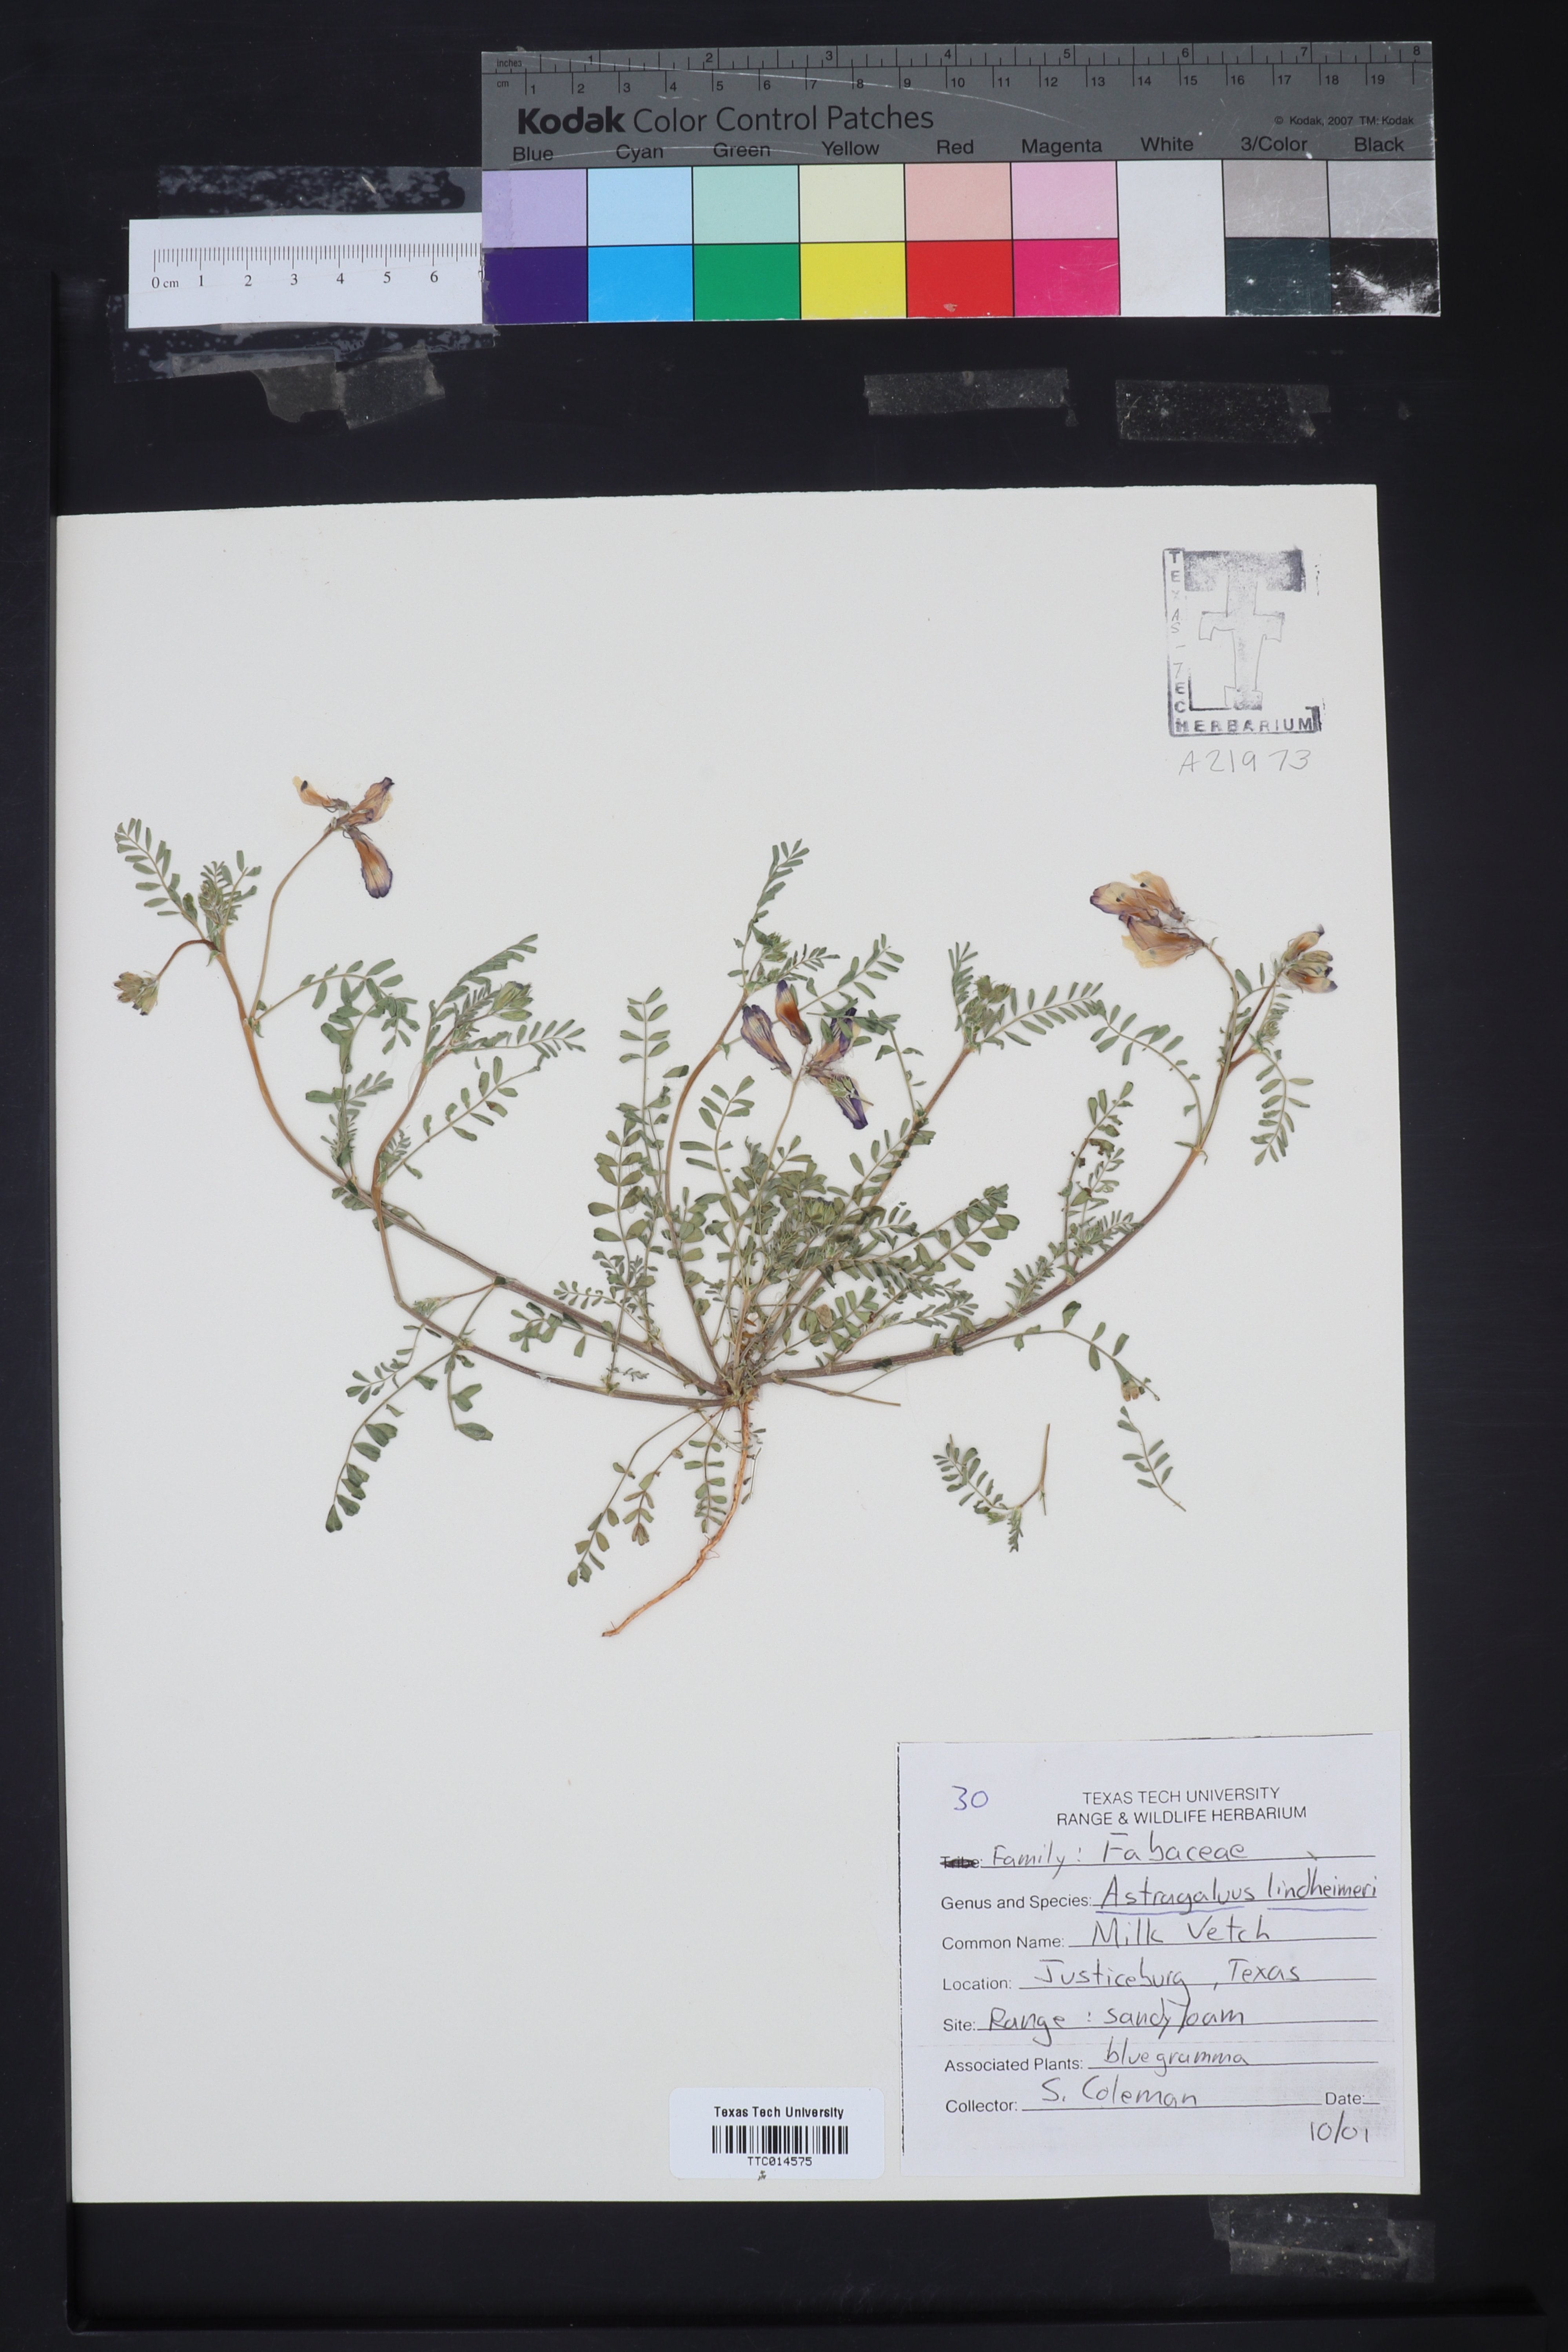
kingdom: Plantae
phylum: Tracheophyta
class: Magnoliopsida
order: Fabales
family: Fabaceae
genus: Astragalus
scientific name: Astragalus lindheimeri
